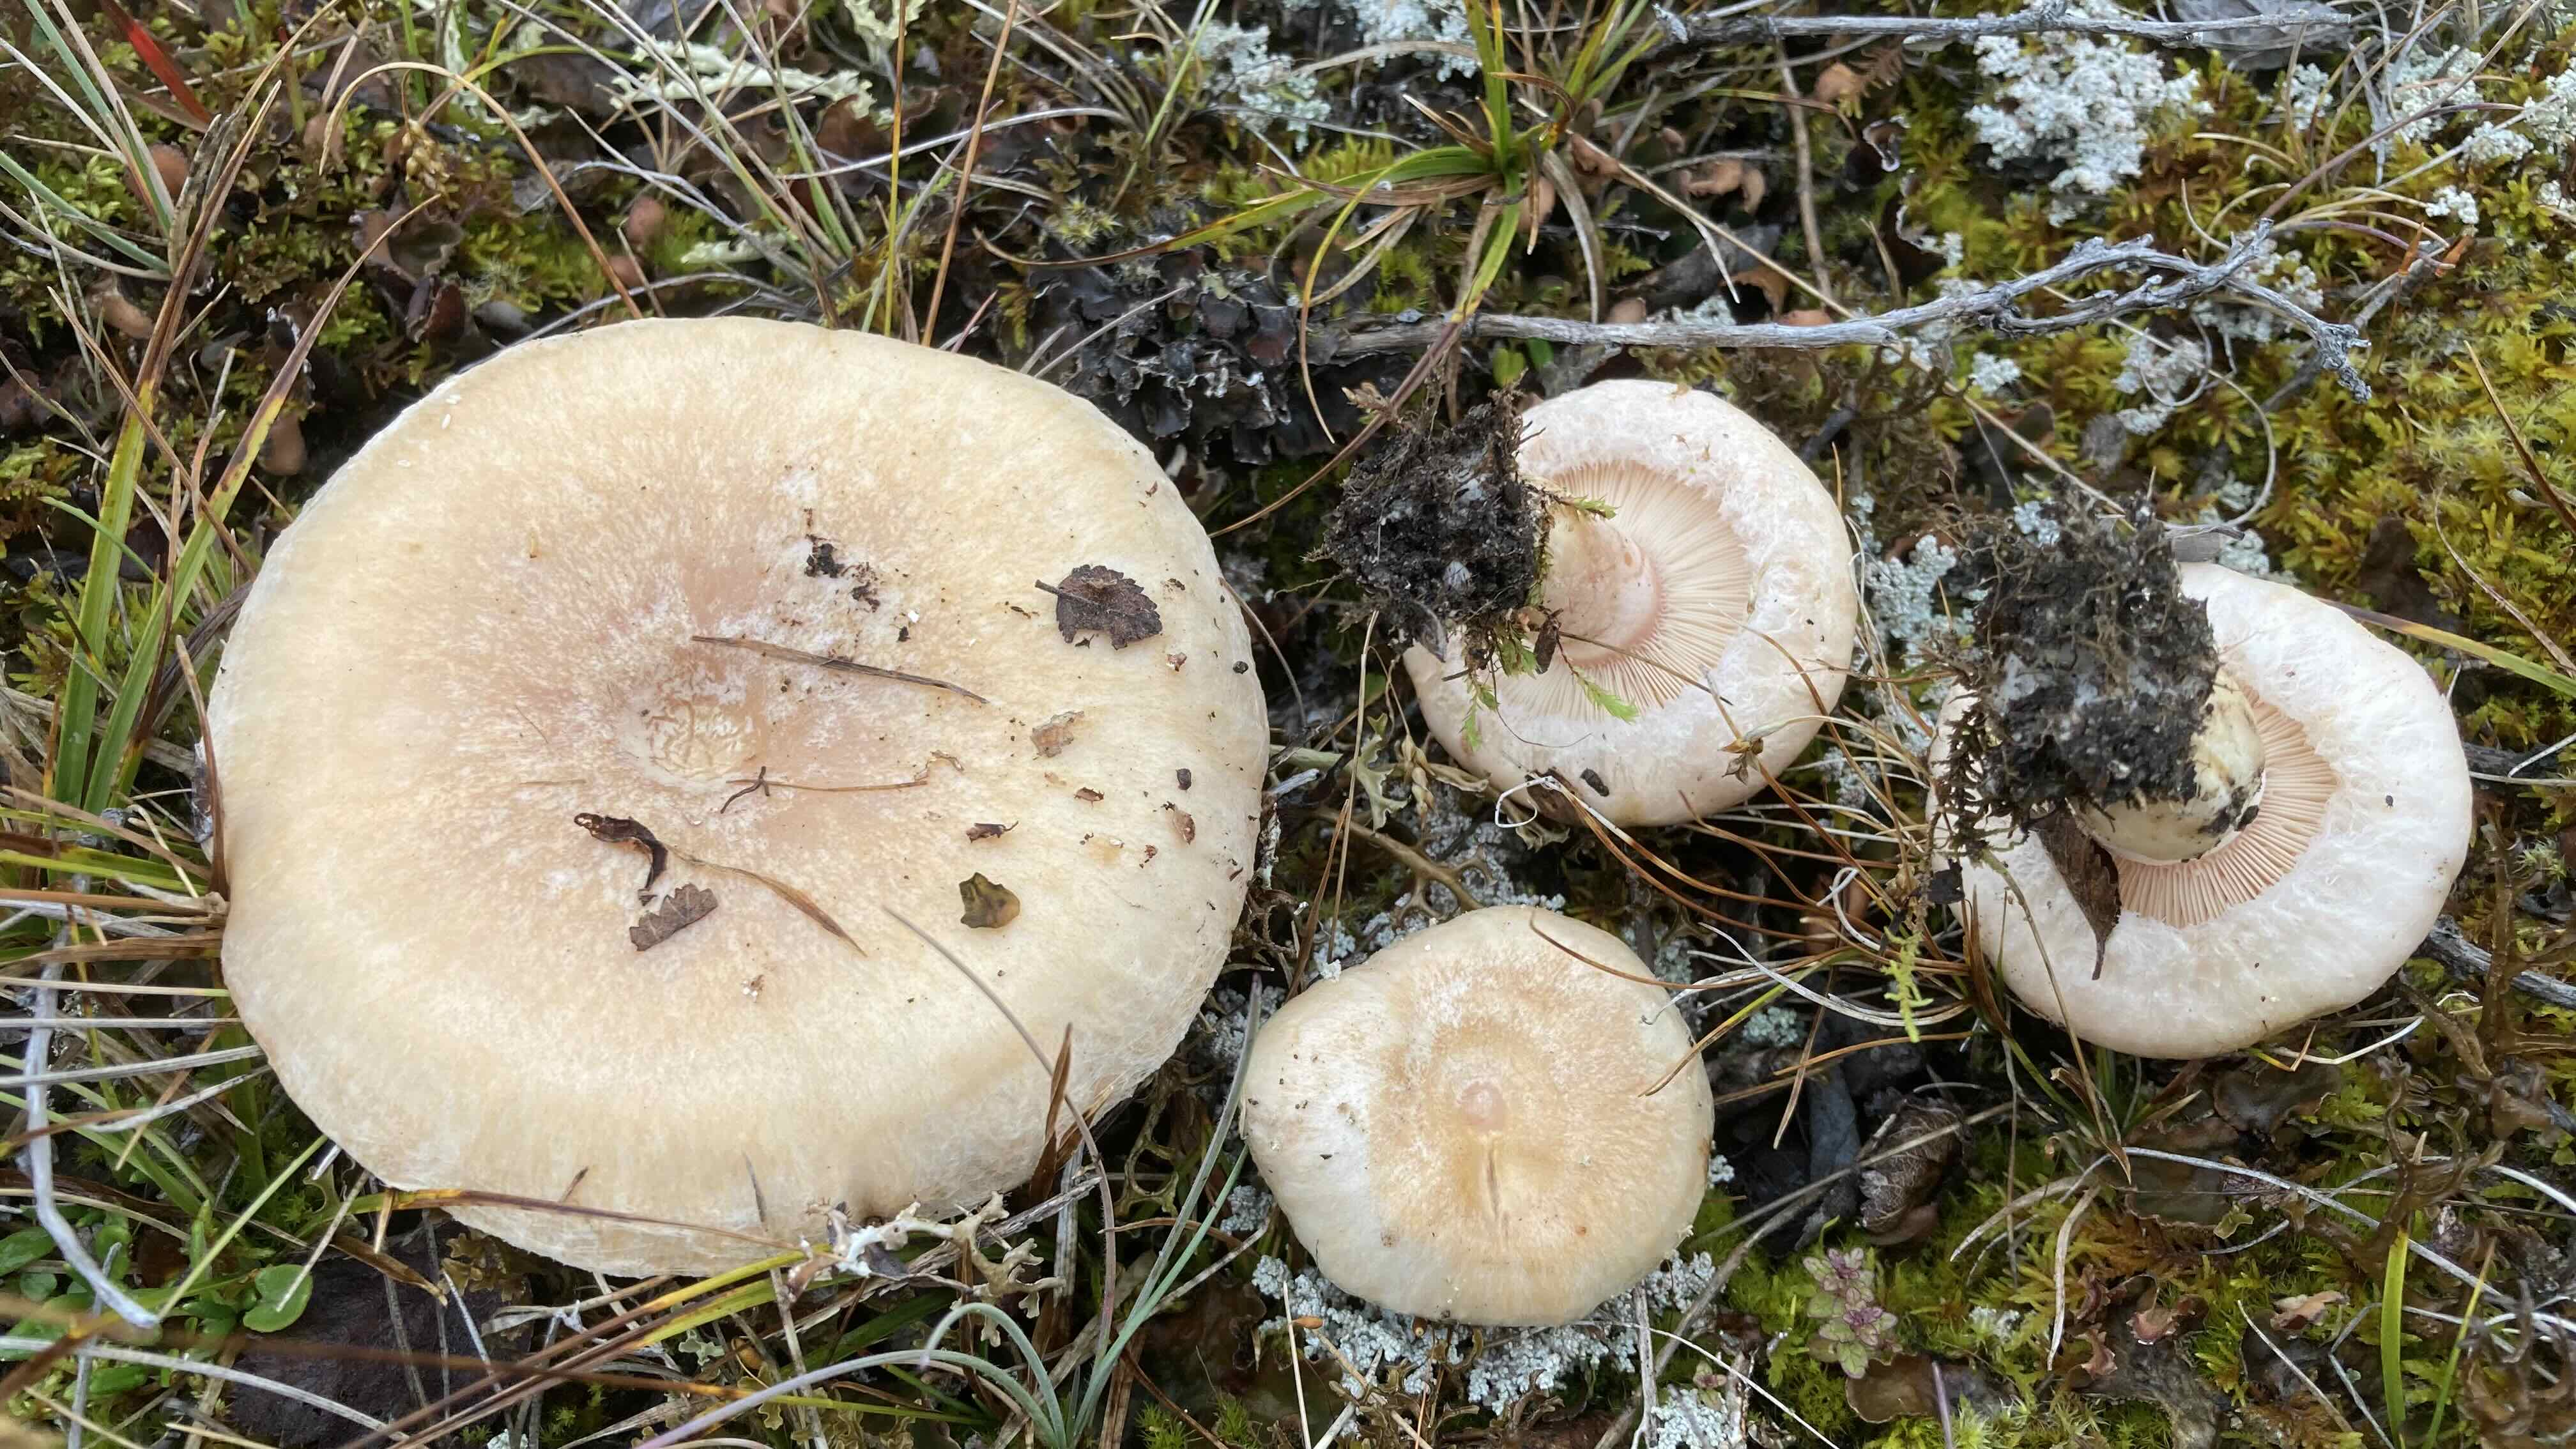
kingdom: Fungi
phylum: Basidiomycota
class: Agaricomycetes
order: Russulales
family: Russulaceae
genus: Lactarius
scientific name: Lactarius pubescens
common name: dunet mælkehat
